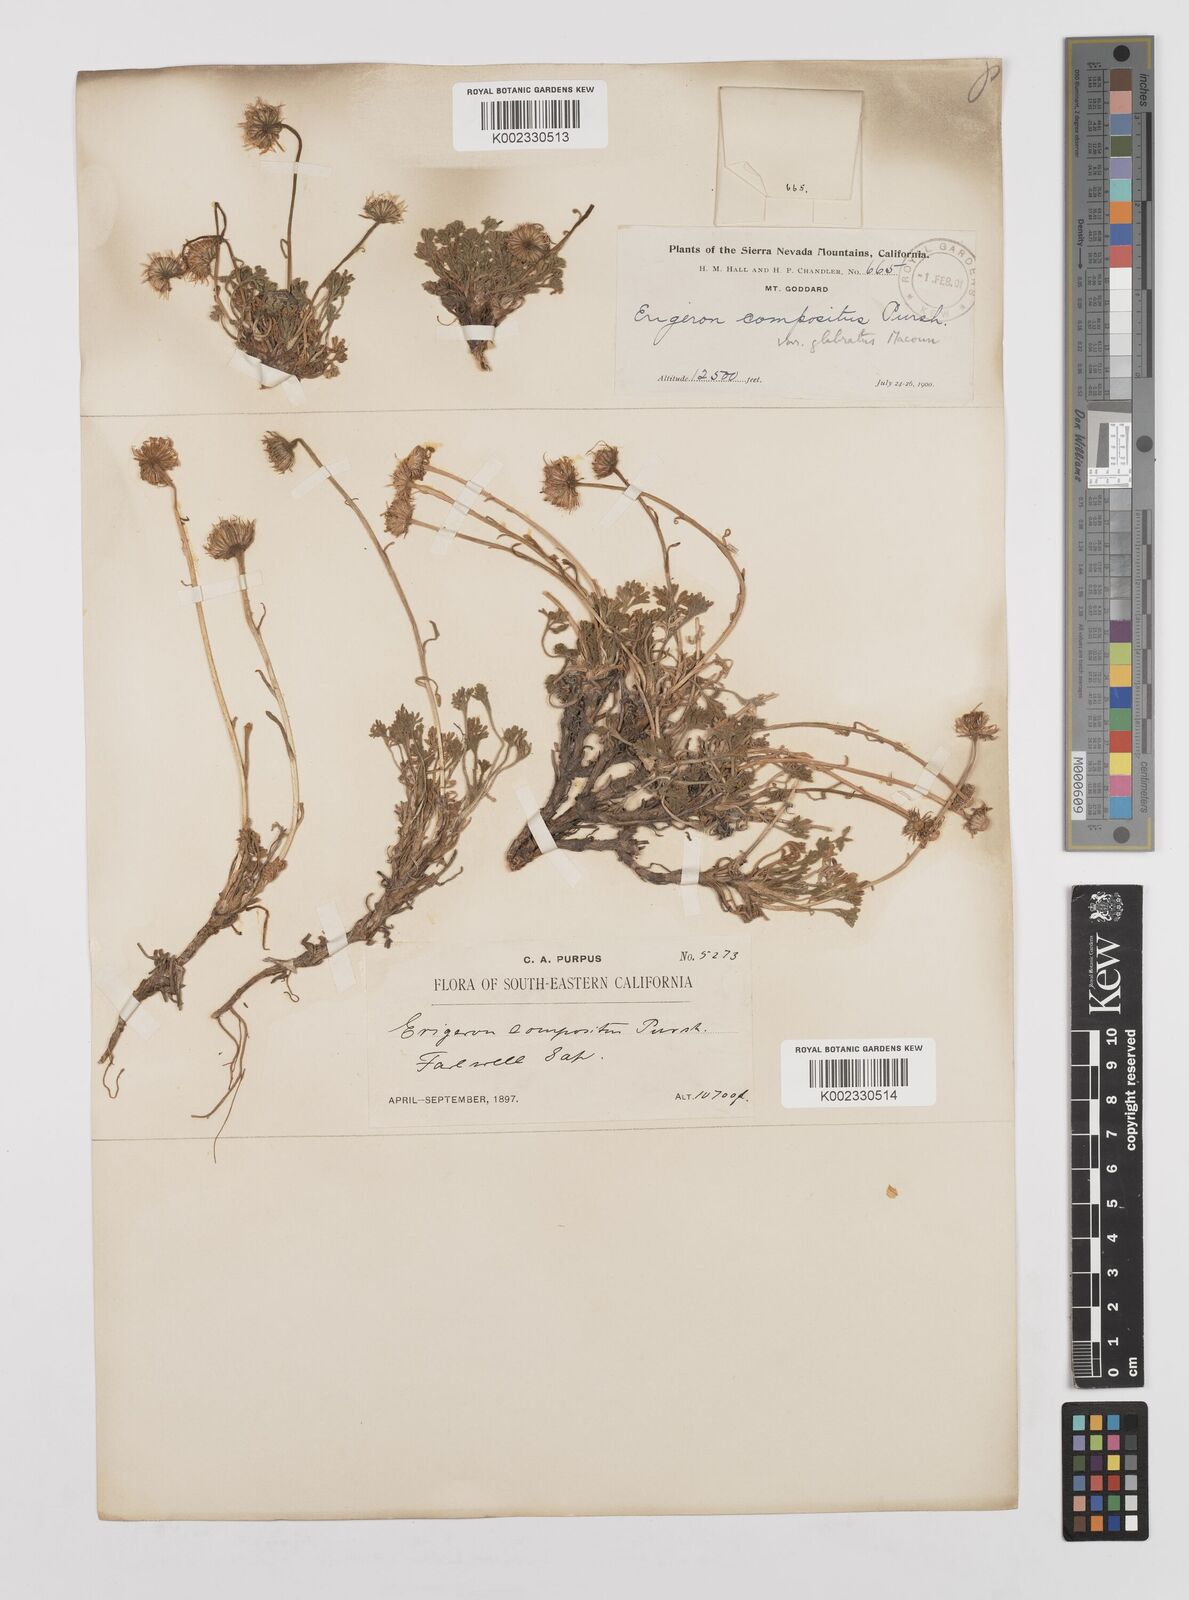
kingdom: Plantae
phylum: Tracheophyta
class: Magnoliopsida
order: Asterales
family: Asteraceae
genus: Erigeron
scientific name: Erigeron compositus
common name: Dwarf mountain fleabane
